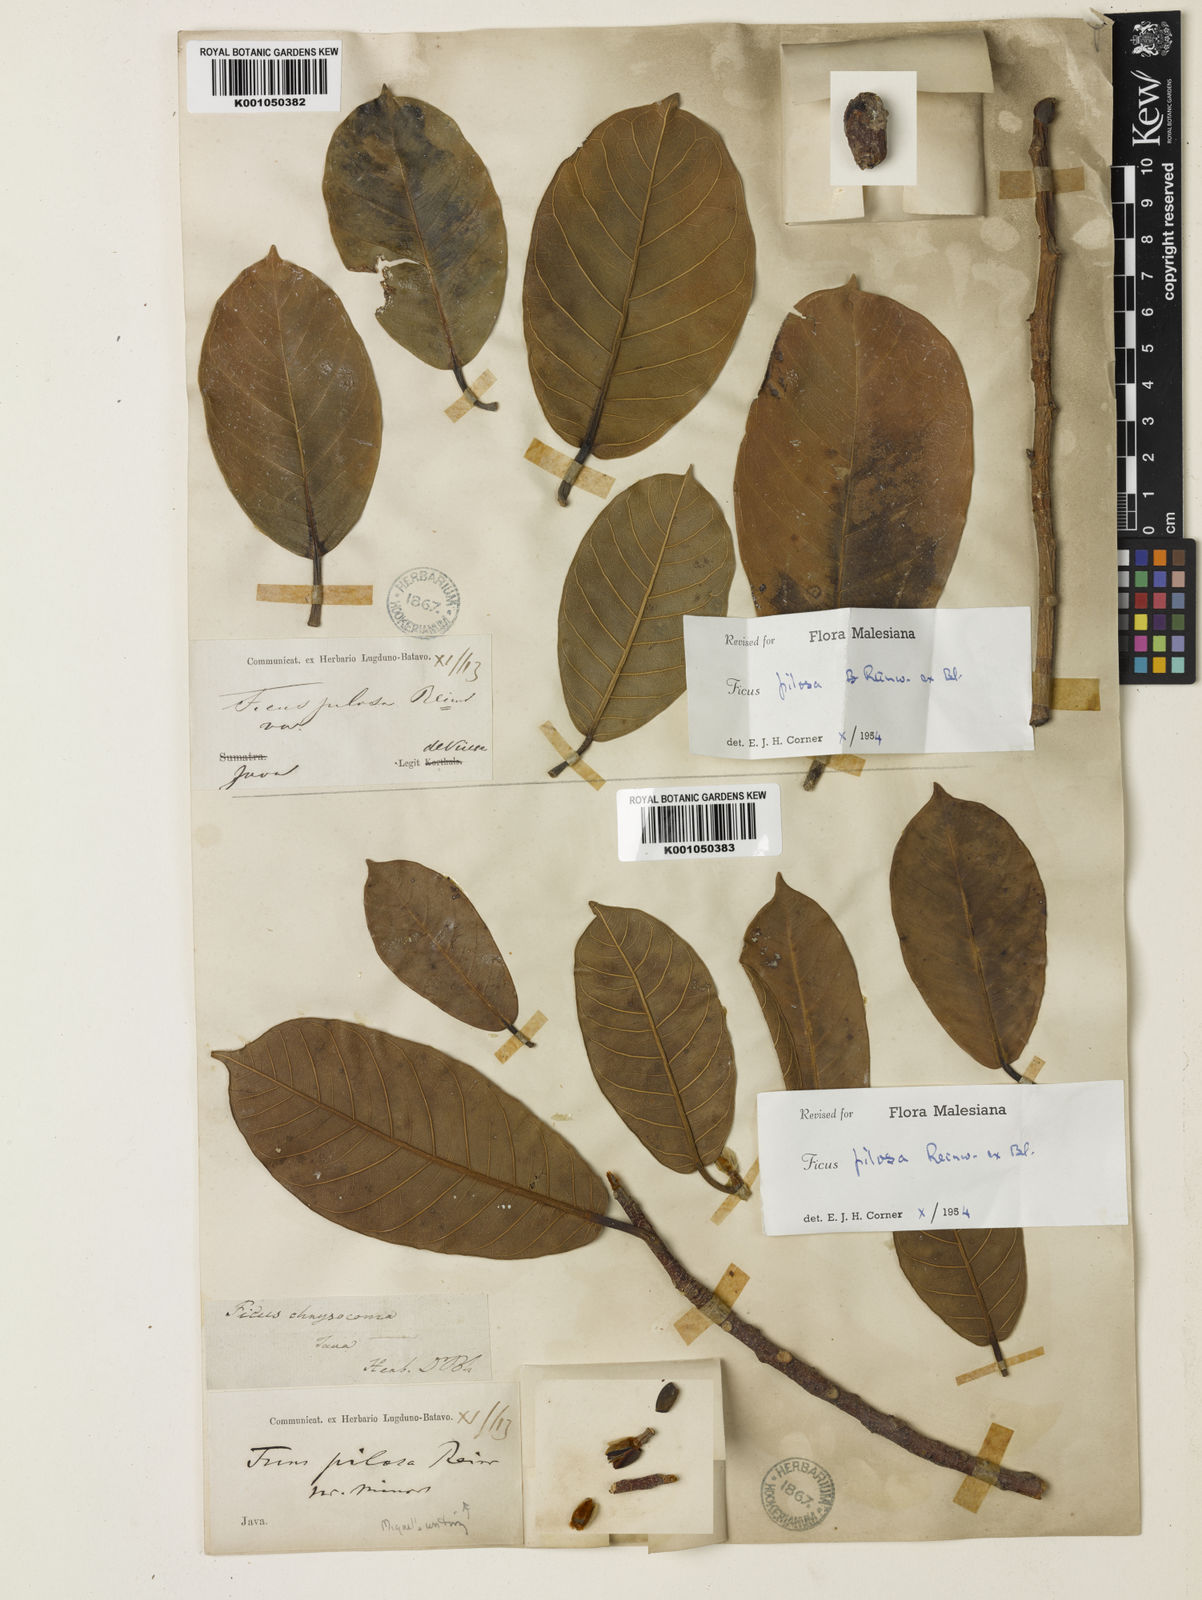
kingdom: Plantae
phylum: Tracheophyta
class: Magnoliopsida
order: Rosales
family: Moraceae
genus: Ficus
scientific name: Ficus drupacea
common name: Drupe fig
